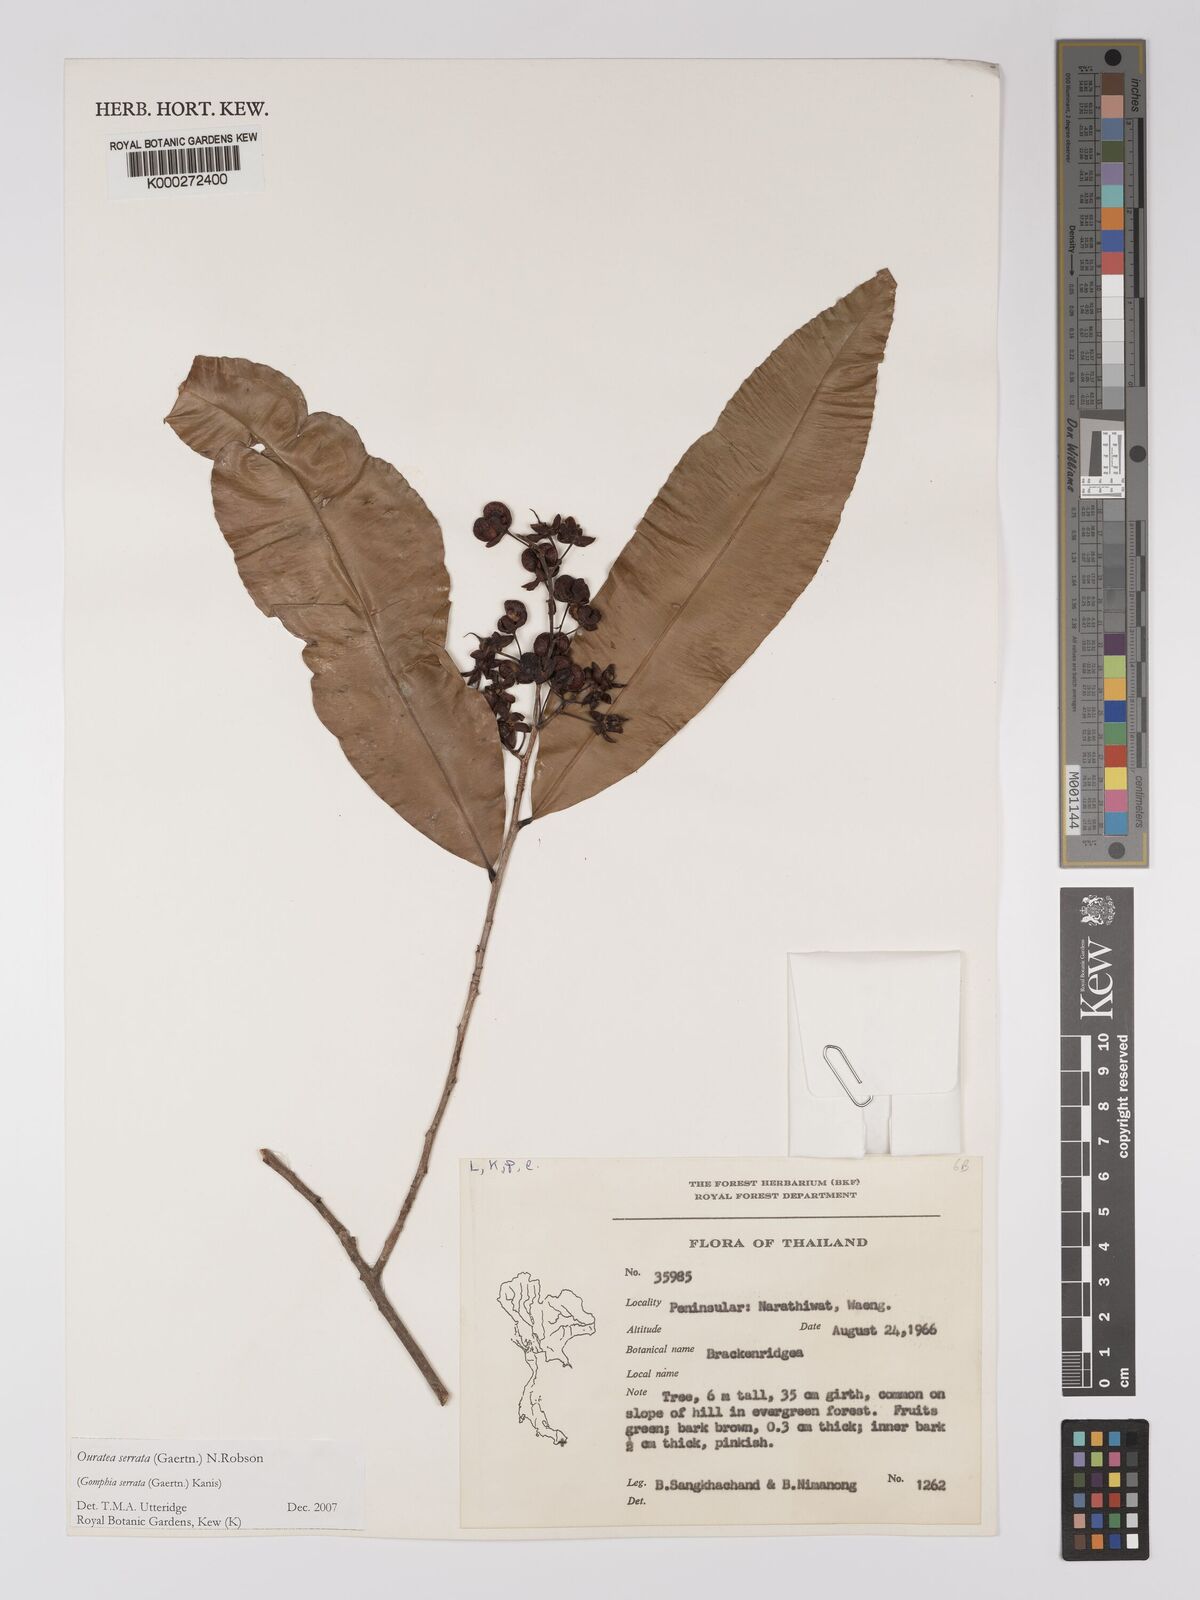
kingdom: Plantae
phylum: Tracheophyta
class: Magnoliopsida
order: Malpighiales
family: Ochnaceae
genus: Gomphia
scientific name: Gomphia serrata
